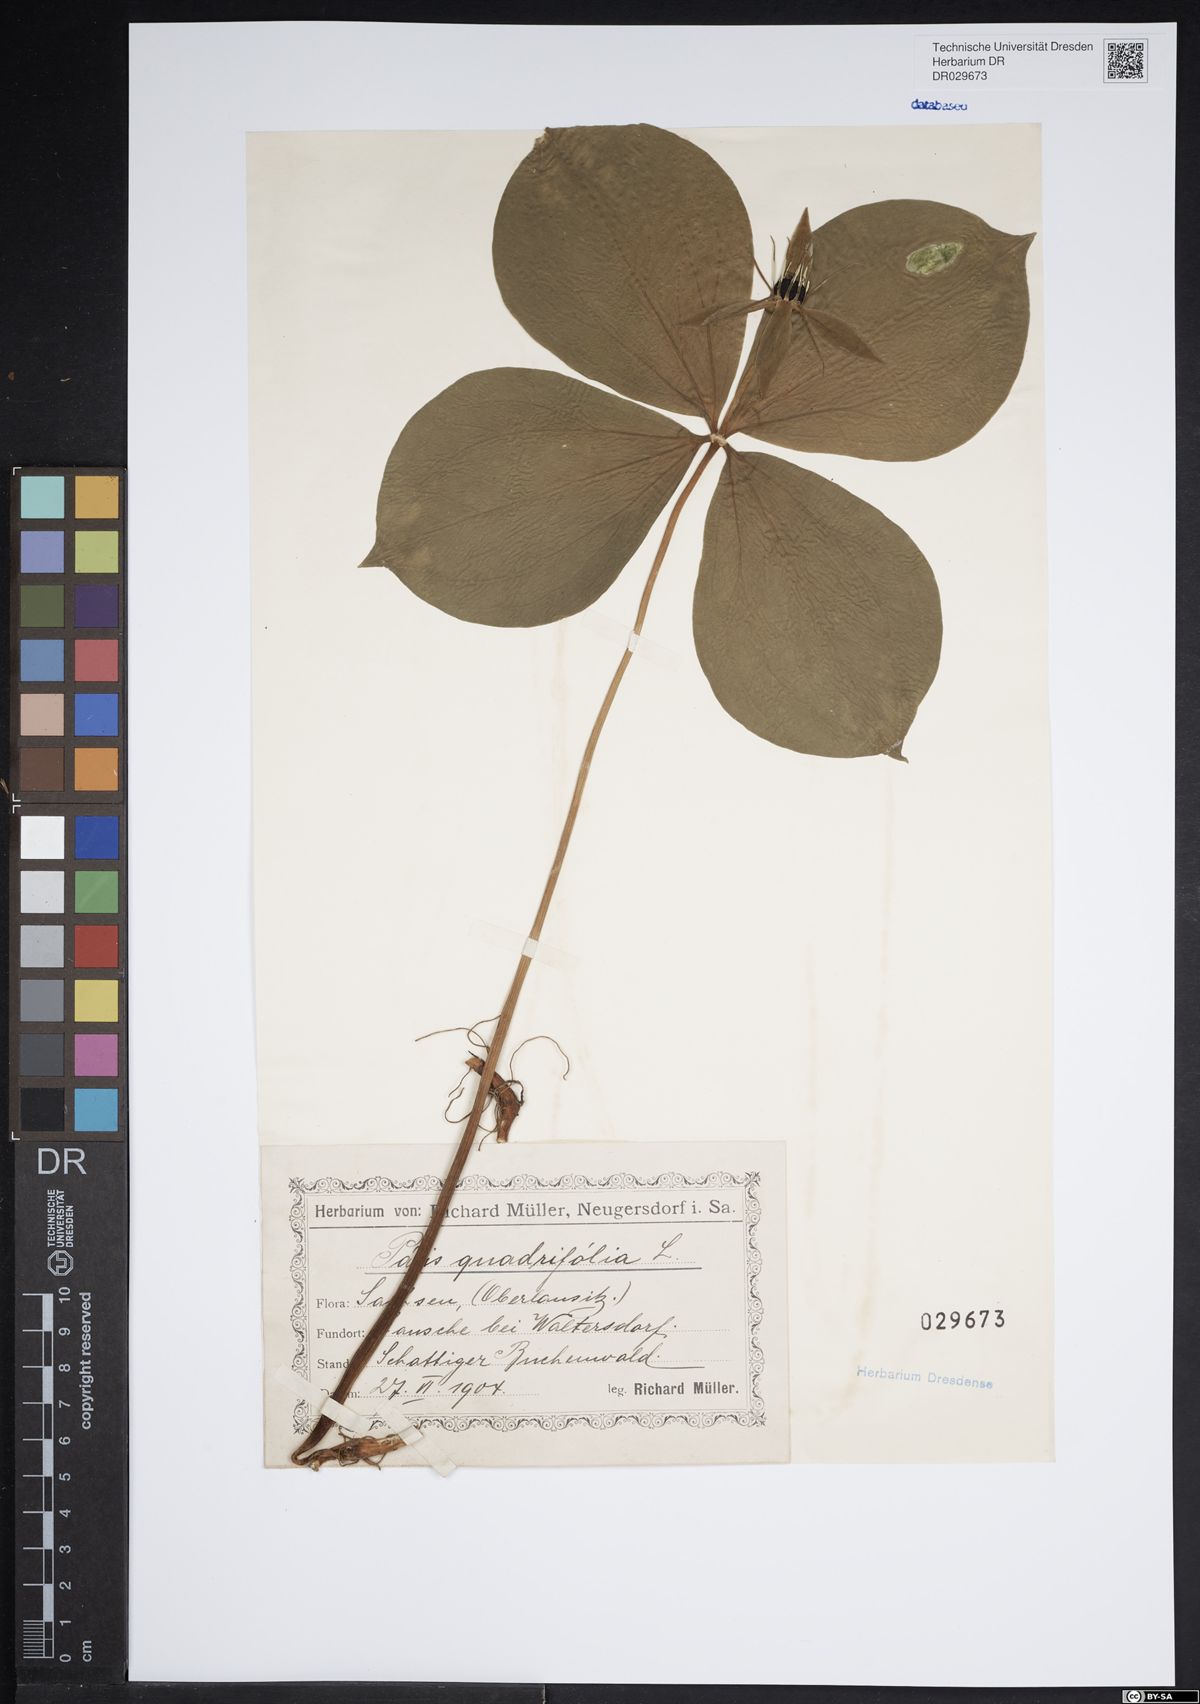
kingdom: Plantae
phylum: Tracheophyta
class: Liliopsida
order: Liliales
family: Melanthiaceae
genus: Paris
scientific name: Paris quadrifolia
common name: Herb-paris
